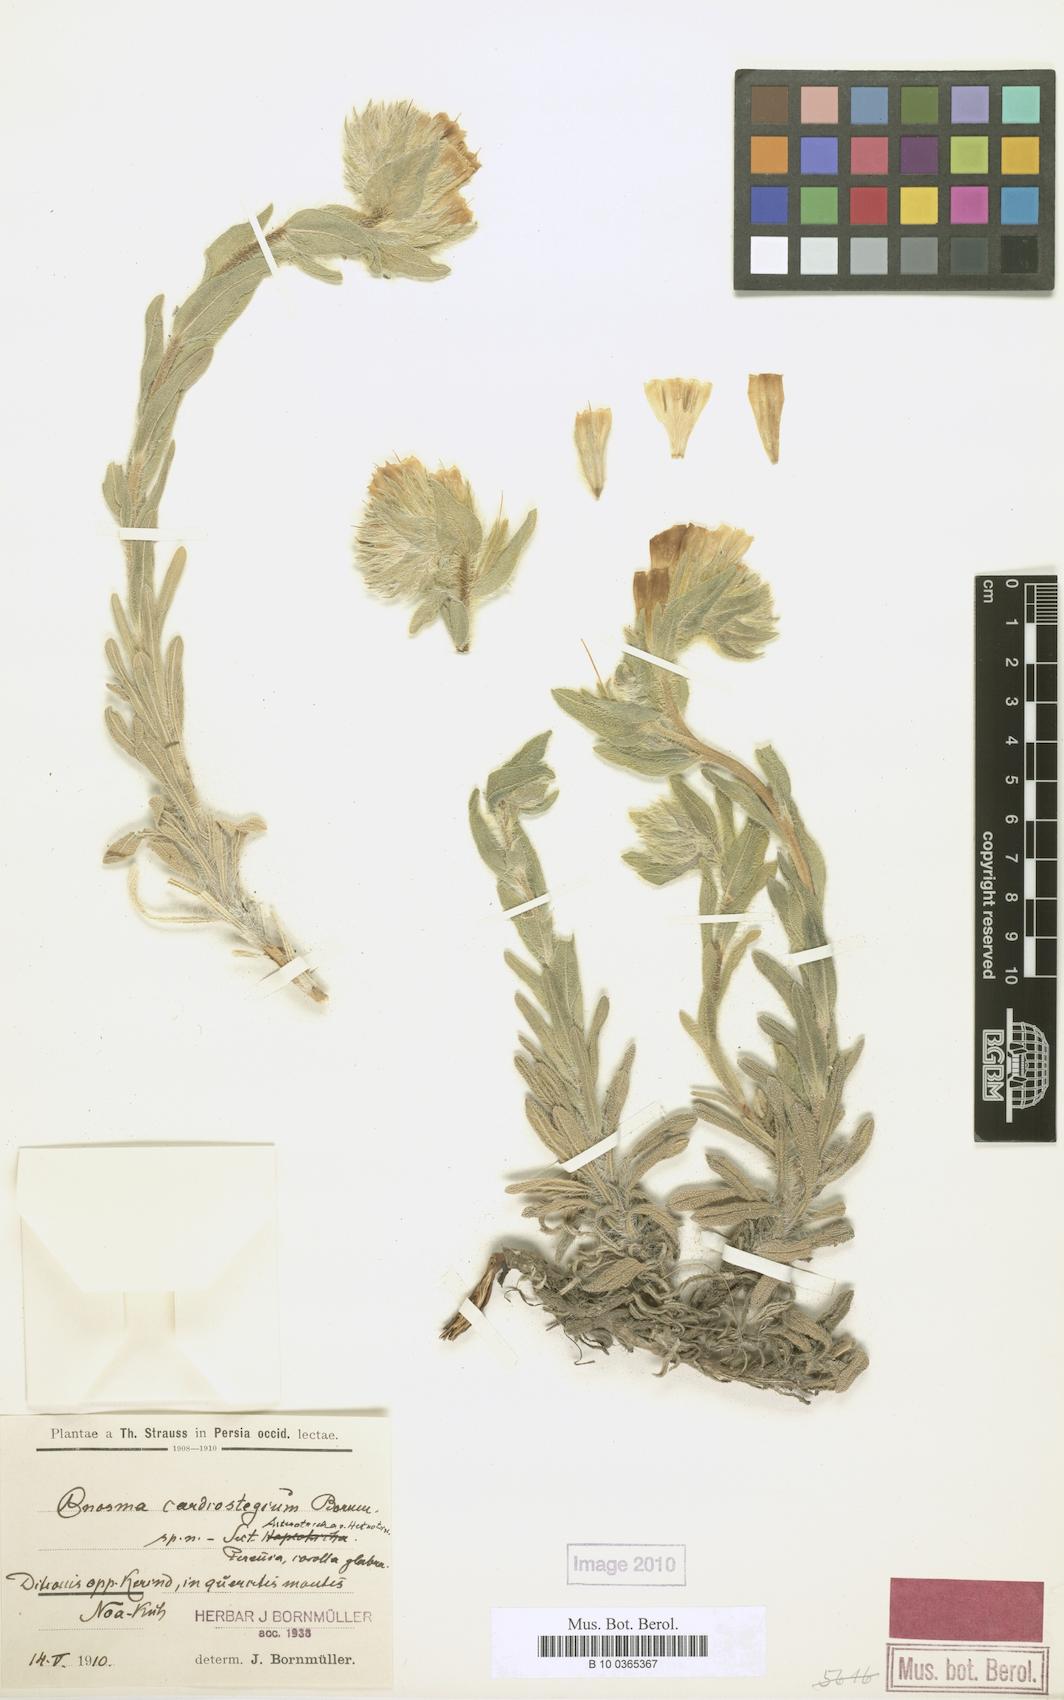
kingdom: Plantae
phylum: Tracheophyta
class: Magnoliopsida
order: Boraginales
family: Boraginaceae
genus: Onosma
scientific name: Onosma cardiostegia
